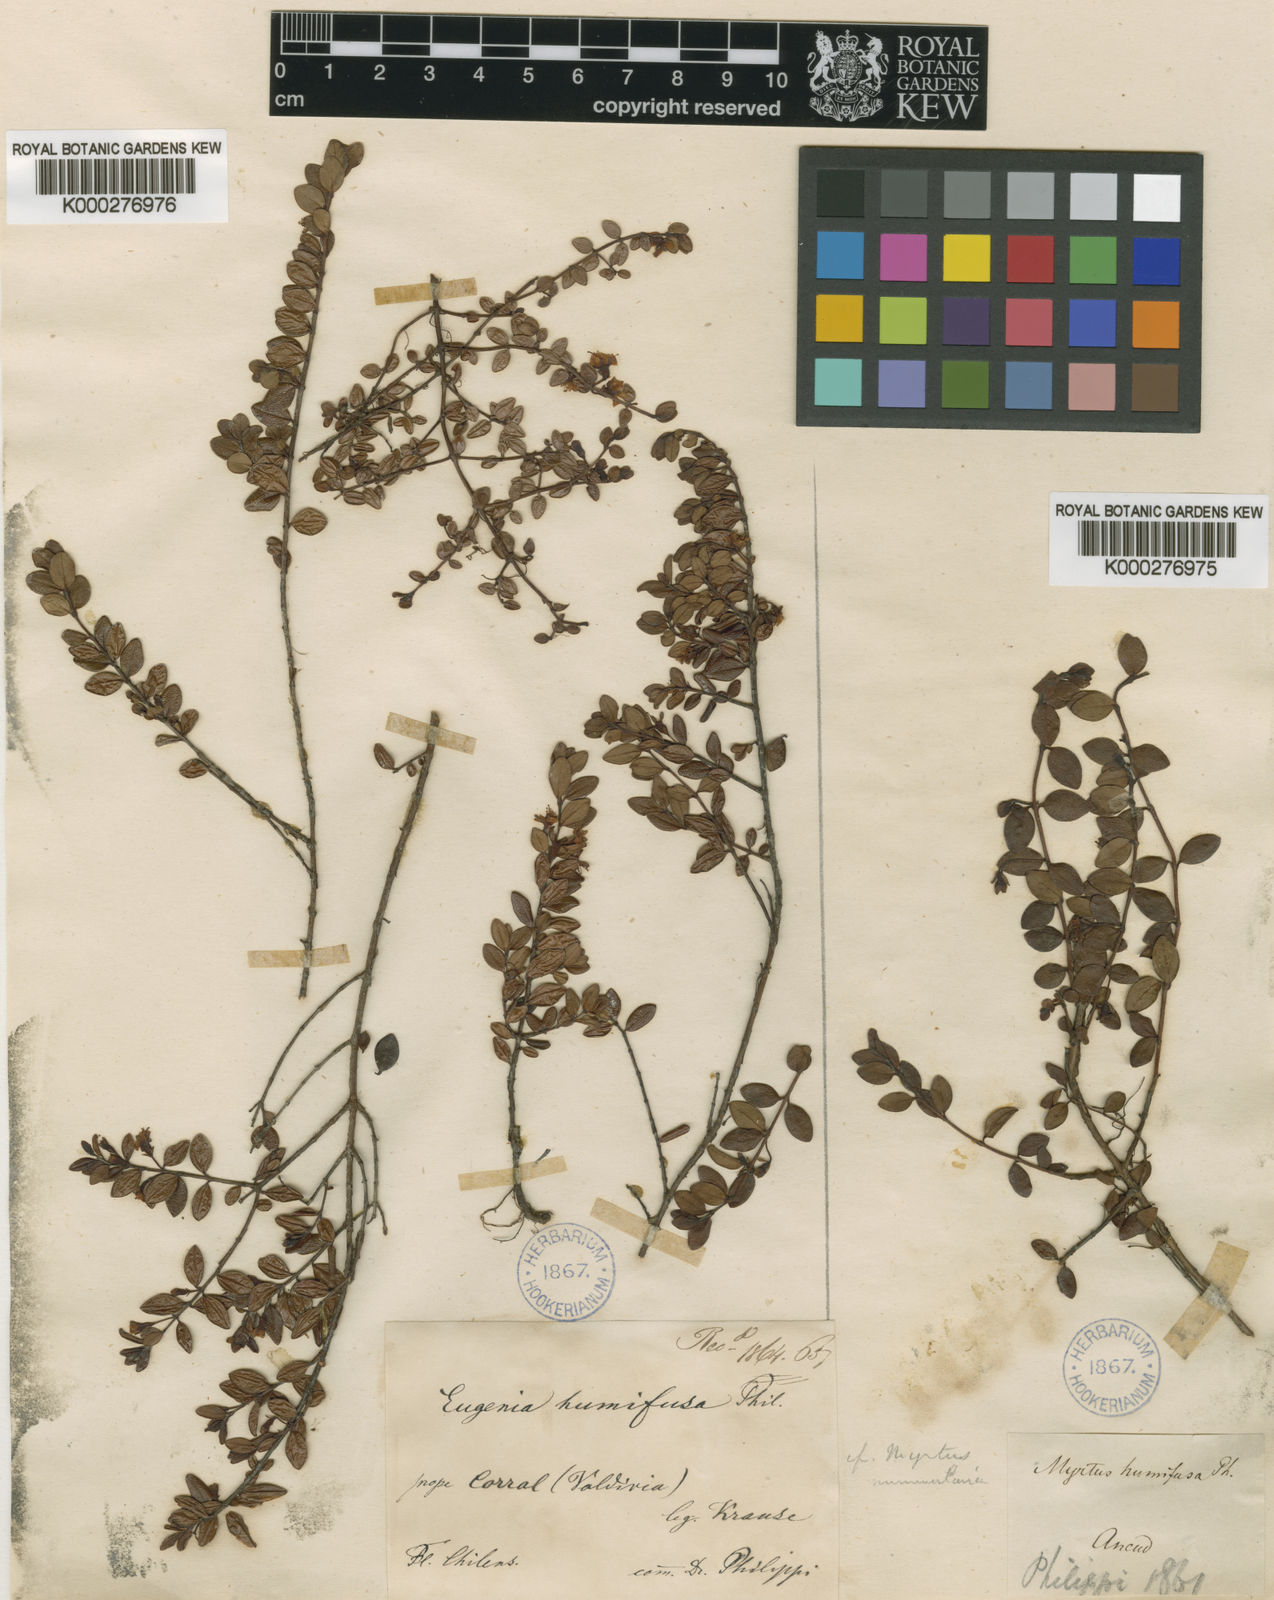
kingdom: Plantae
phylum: Tracheophyta
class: Magnoliopsida
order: Myrtales
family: Myrtaceae
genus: Myrteola
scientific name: Myrteola nummularia
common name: Cranberry-myrtle
